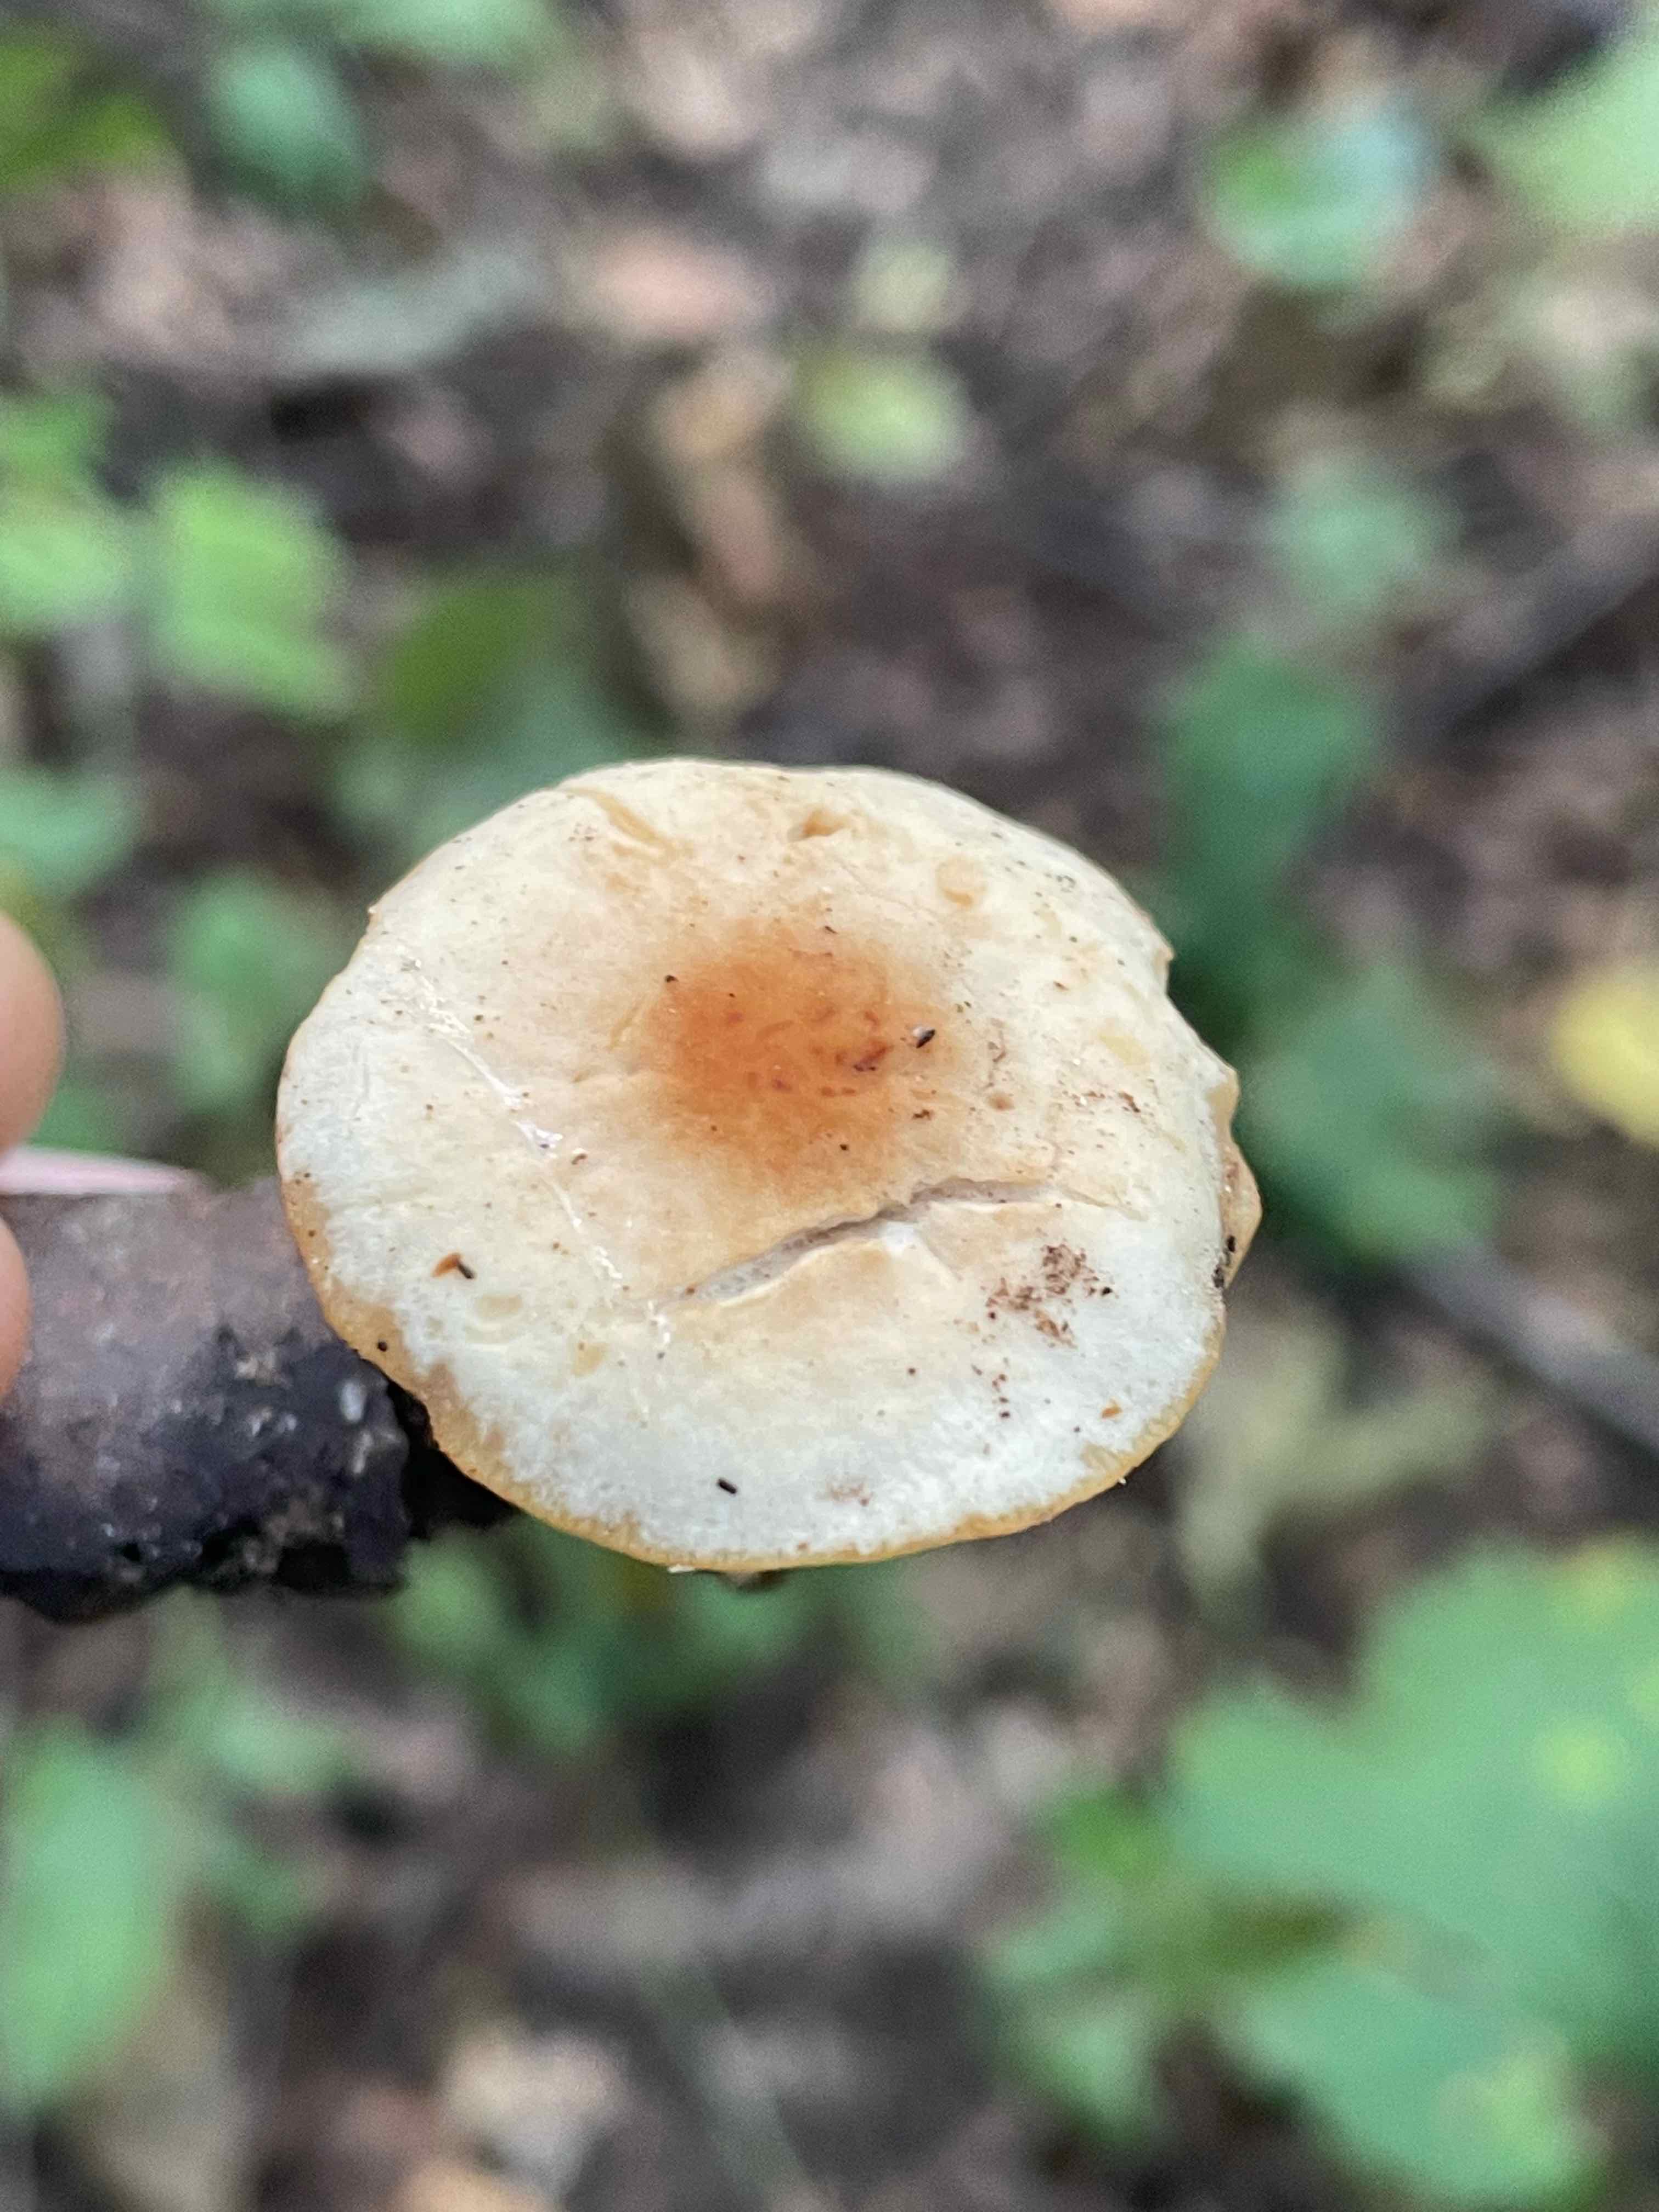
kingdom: Fungi
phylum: Basidiomycota
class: Agaricomycetes
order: Agaricales
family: Omphalotaceae
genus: Gymnopus
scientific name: Gymnopus dryophilus
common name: løv-fladhat
